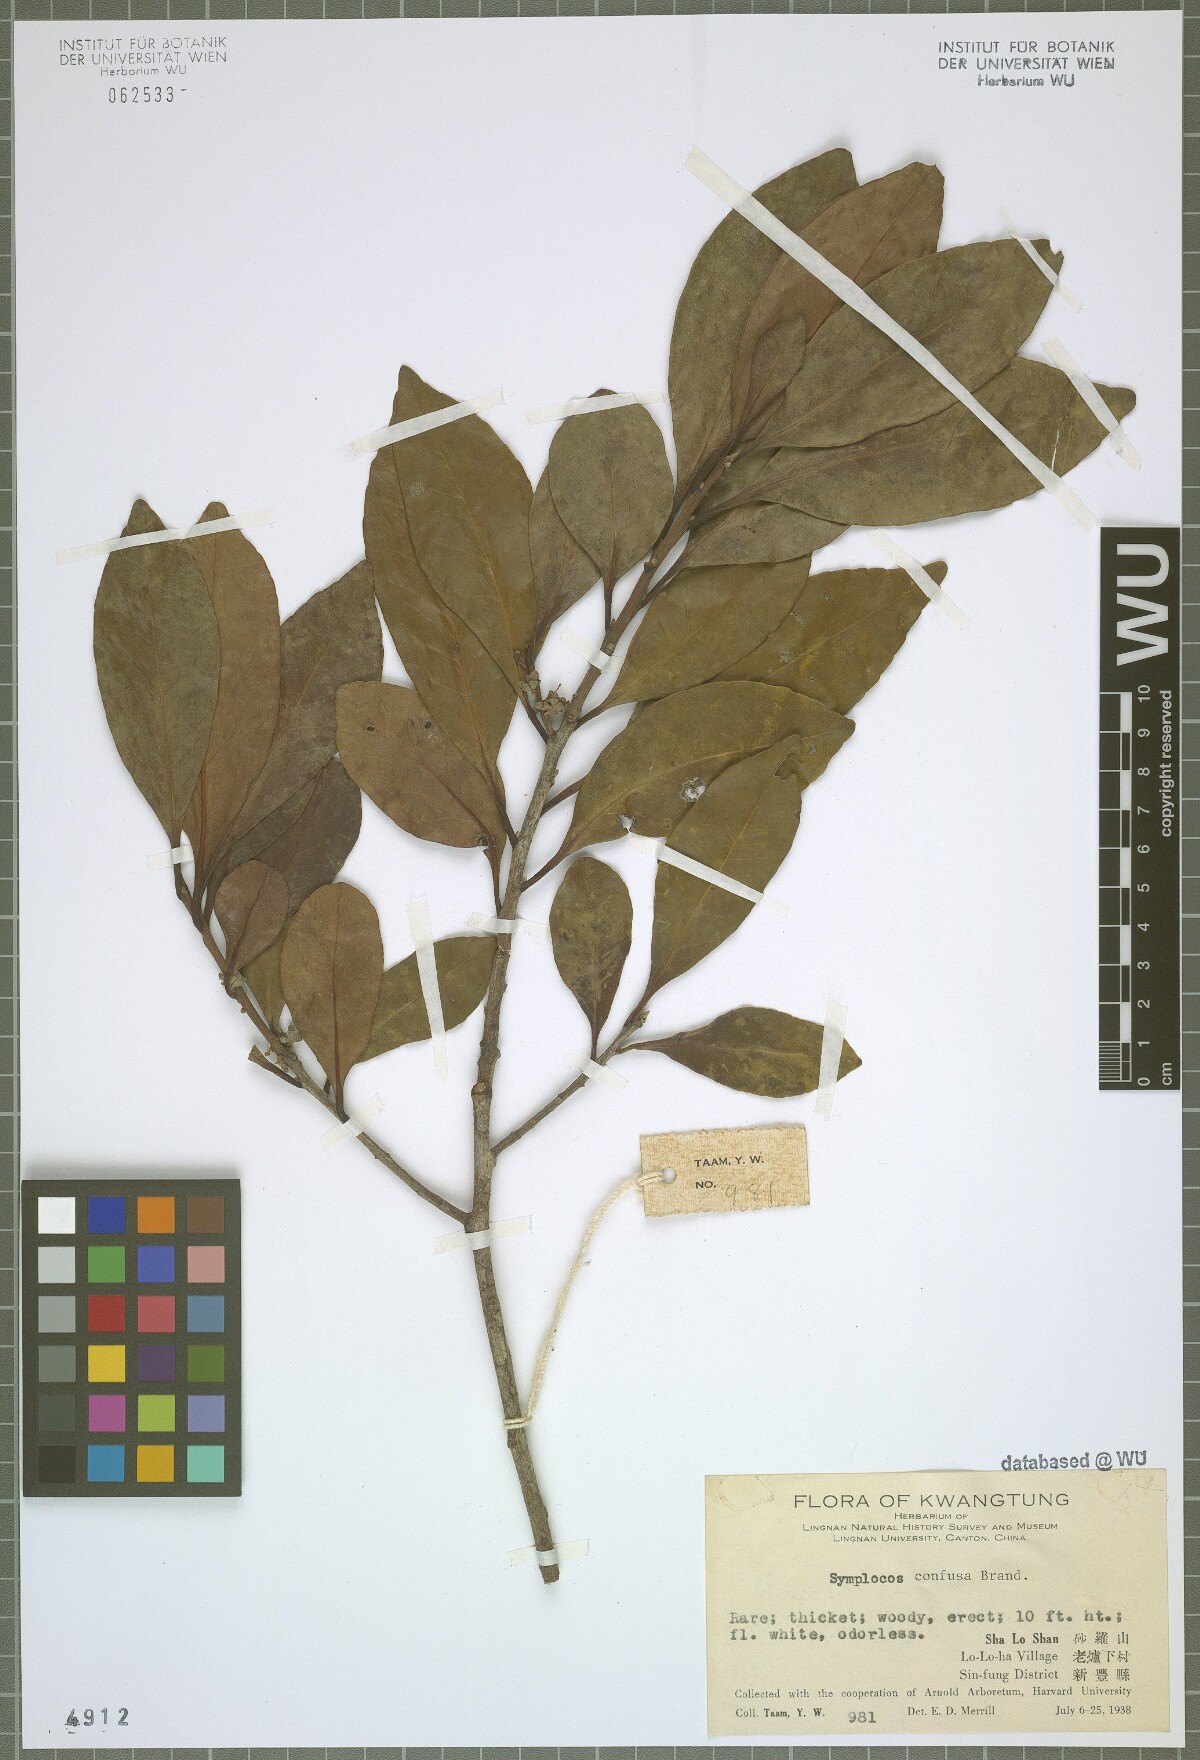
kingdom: Plantae
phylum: Tracheophyta
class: Magnoliopsida
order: Ericales
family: Symplocaceae
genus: Symplocos
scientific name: Symplocos pendula
